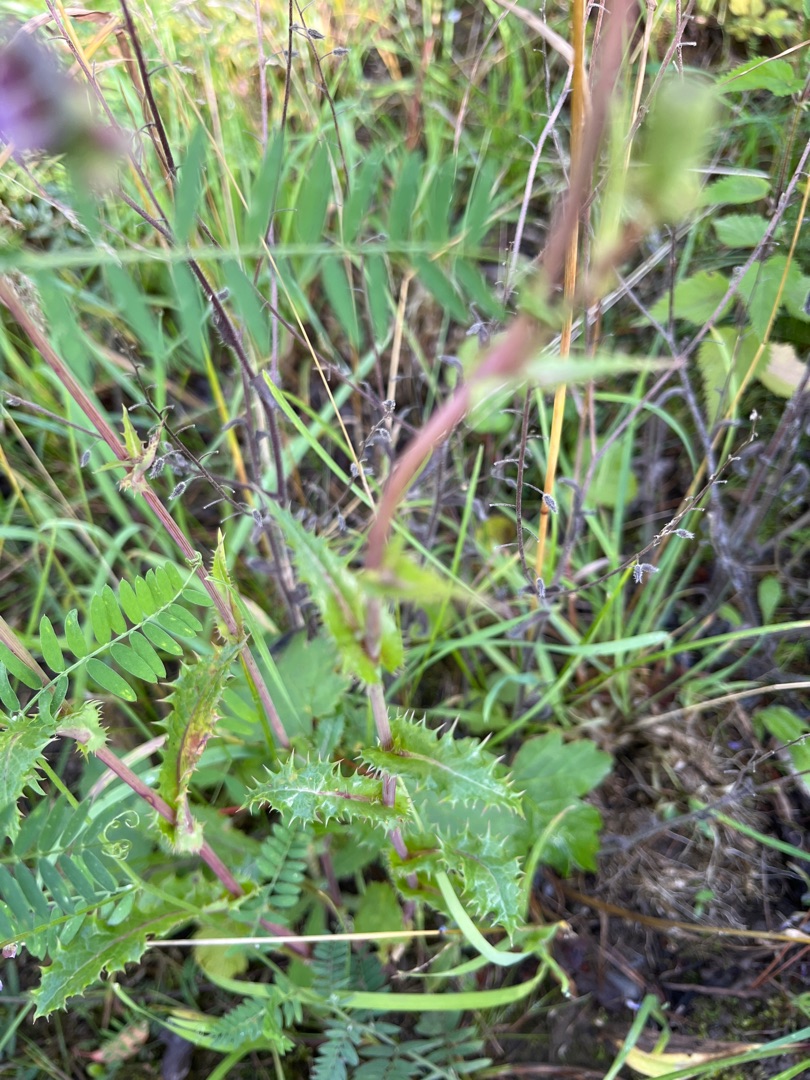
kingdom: Plantae
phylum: Tracheophyta
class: Magnoliopsida
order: Asterales
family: Asteraceae
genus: Sonchus
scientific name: Sonchus asper
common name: Ru svinemælk
